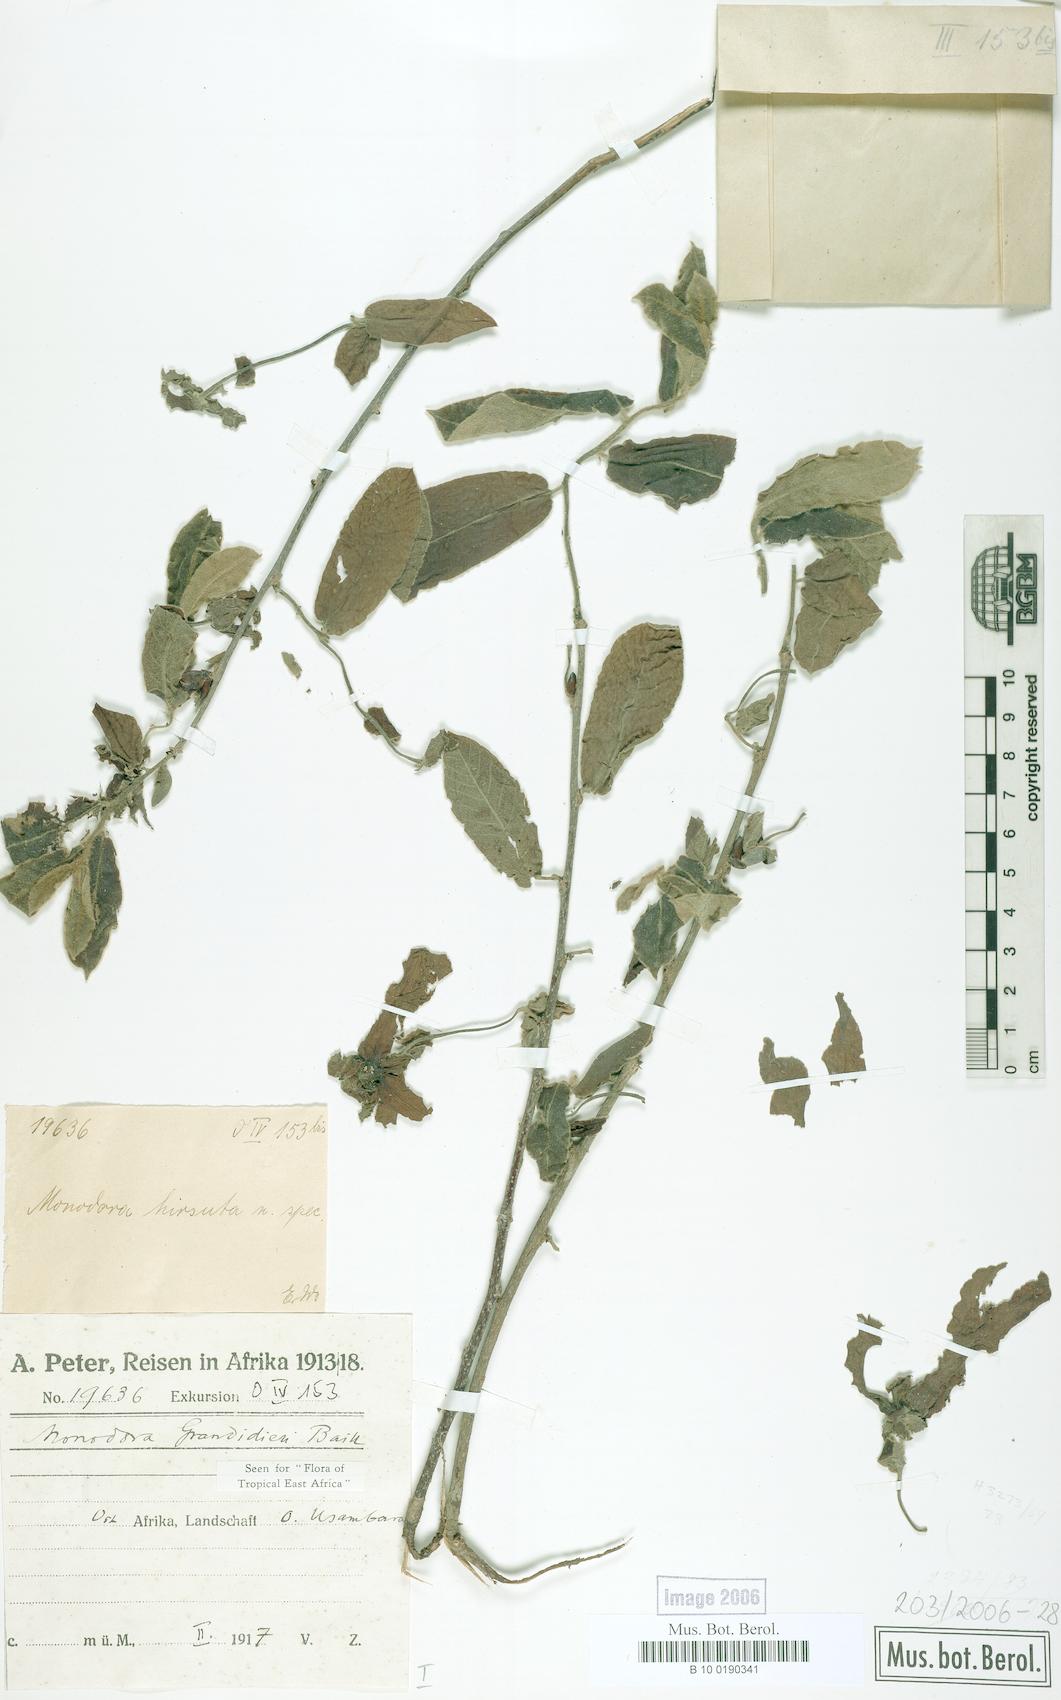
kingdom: Plantae
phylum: Tracheophyta
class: Magnoliopsida
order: Magnoliales
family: Annonaceae
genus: Monodora
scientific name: Monodora grandidieri
